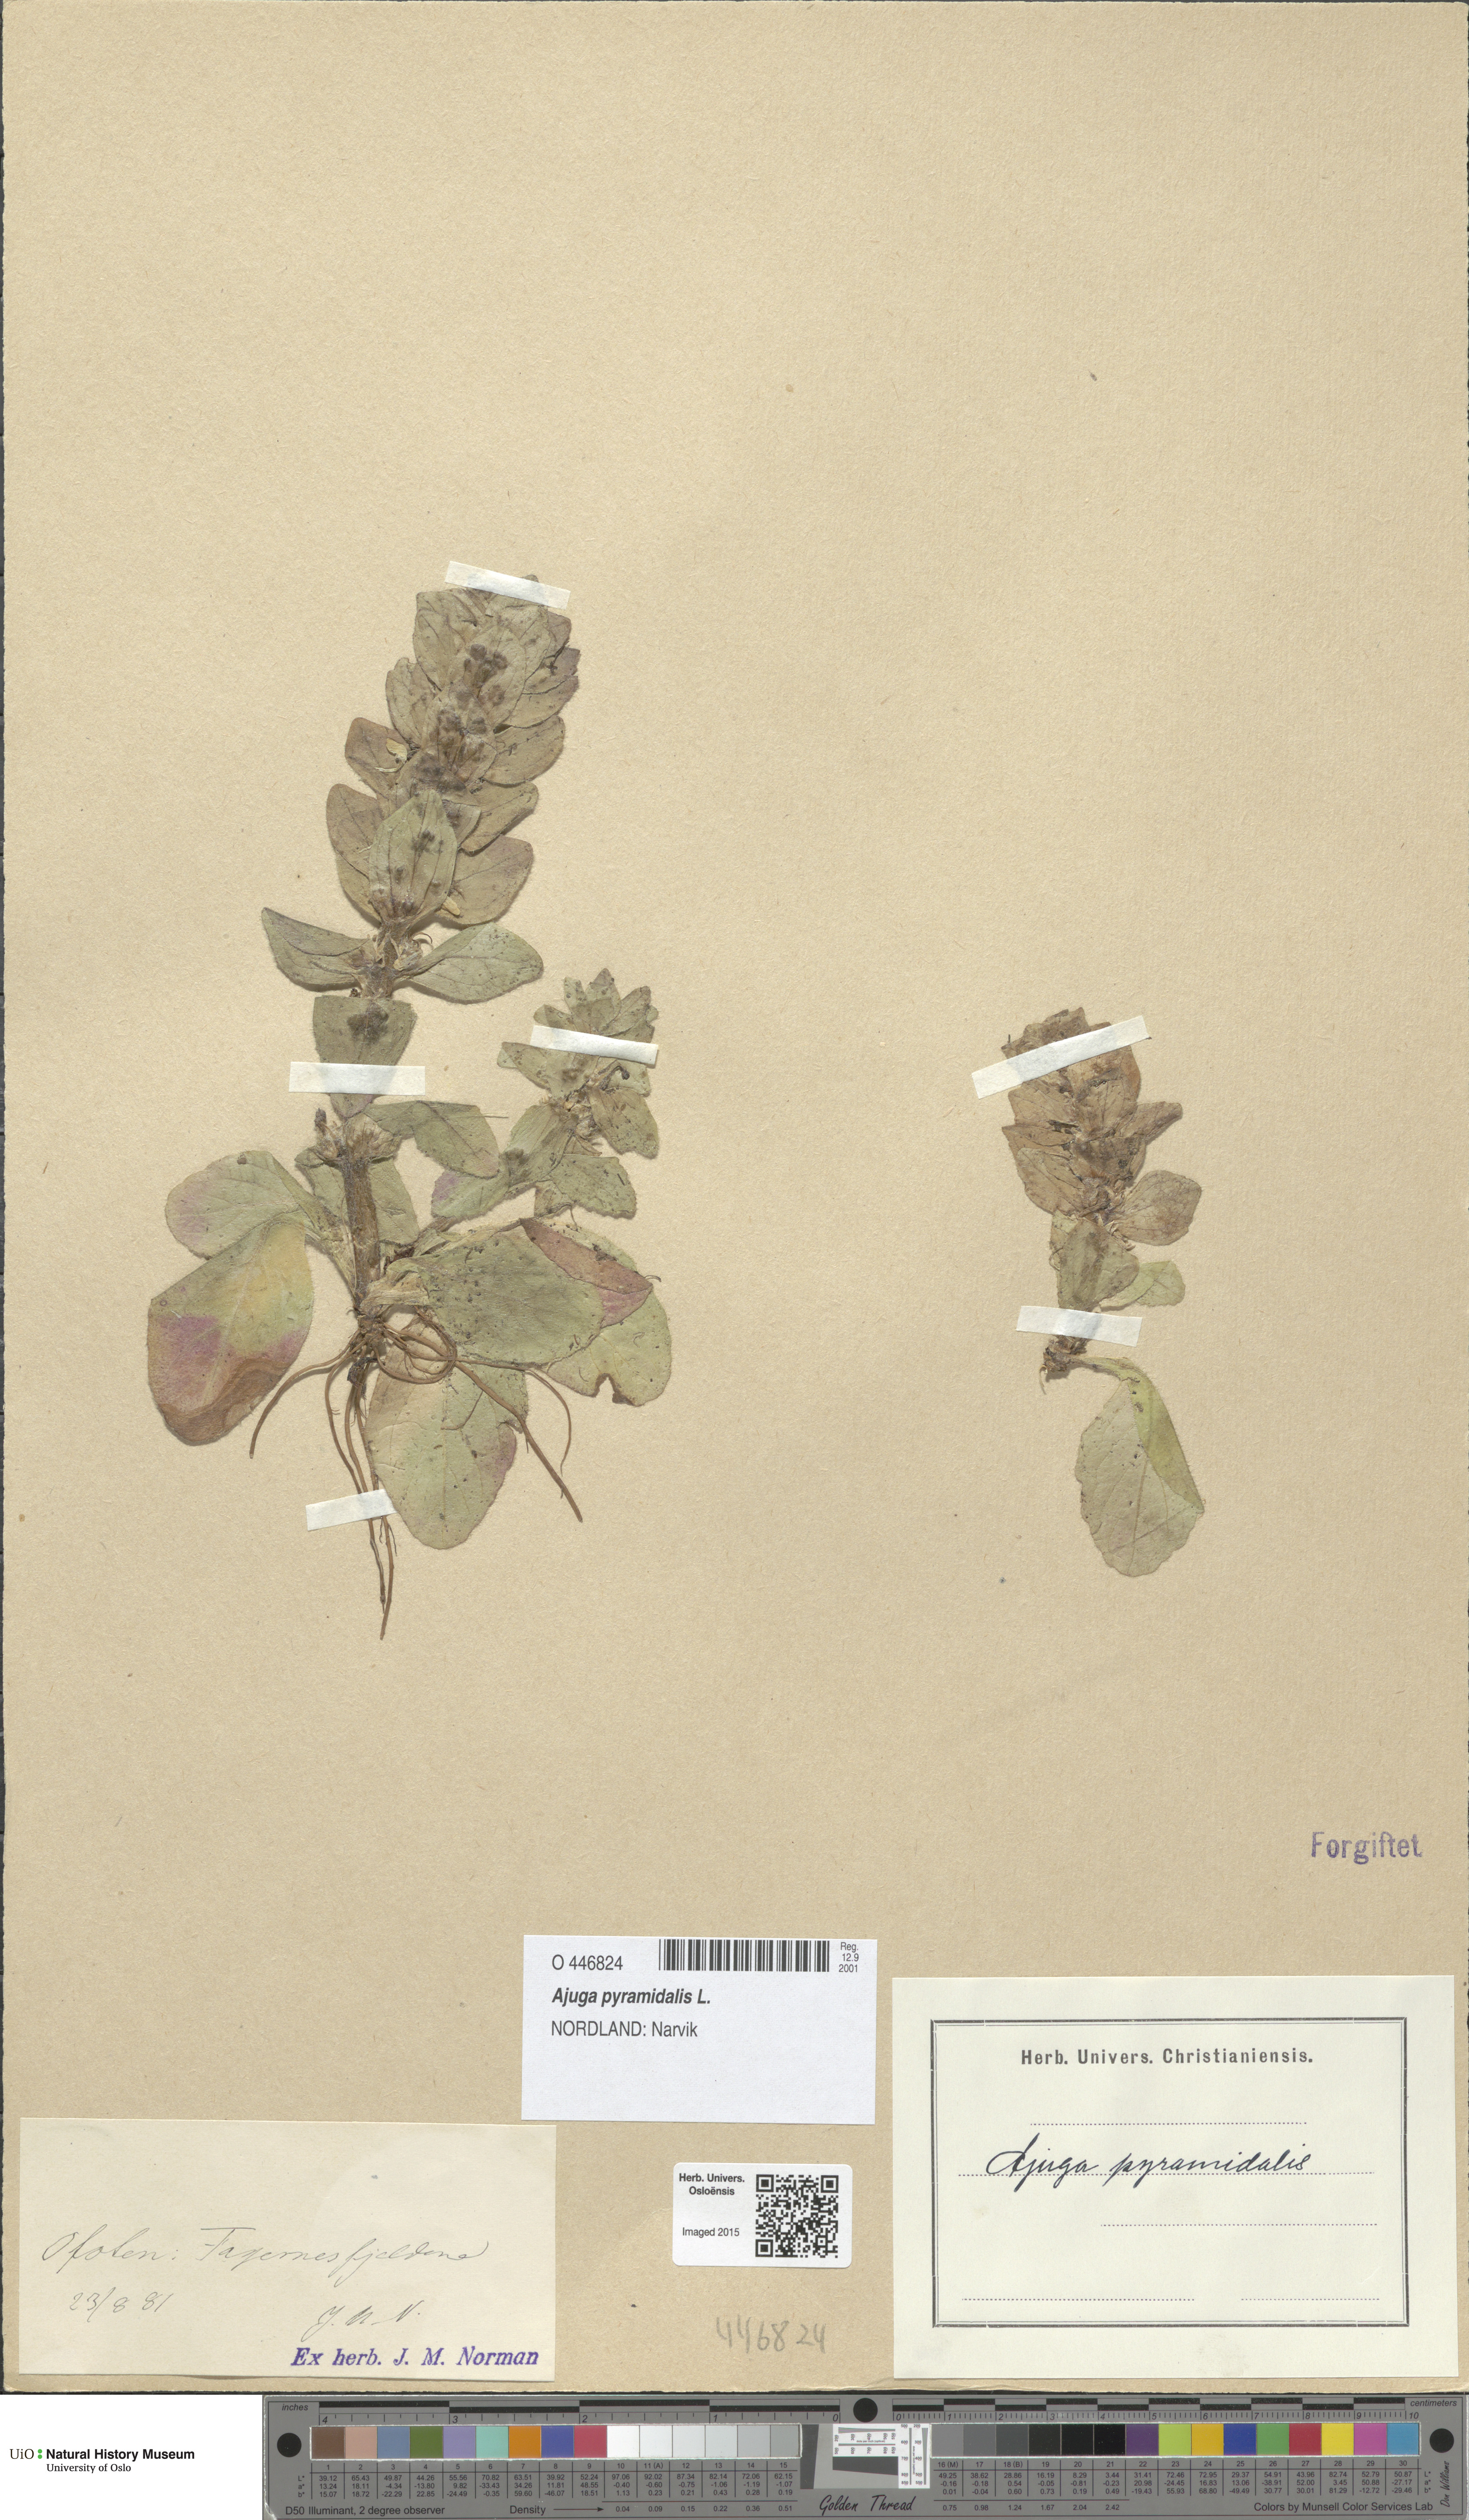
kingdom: Plantae
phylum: Tracheophyta
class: Magnoliopsida
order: Lamiales
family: Lamiaceae
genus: Ajuga
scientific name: Ajuga pyramidalis
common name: Pyramid bugle
